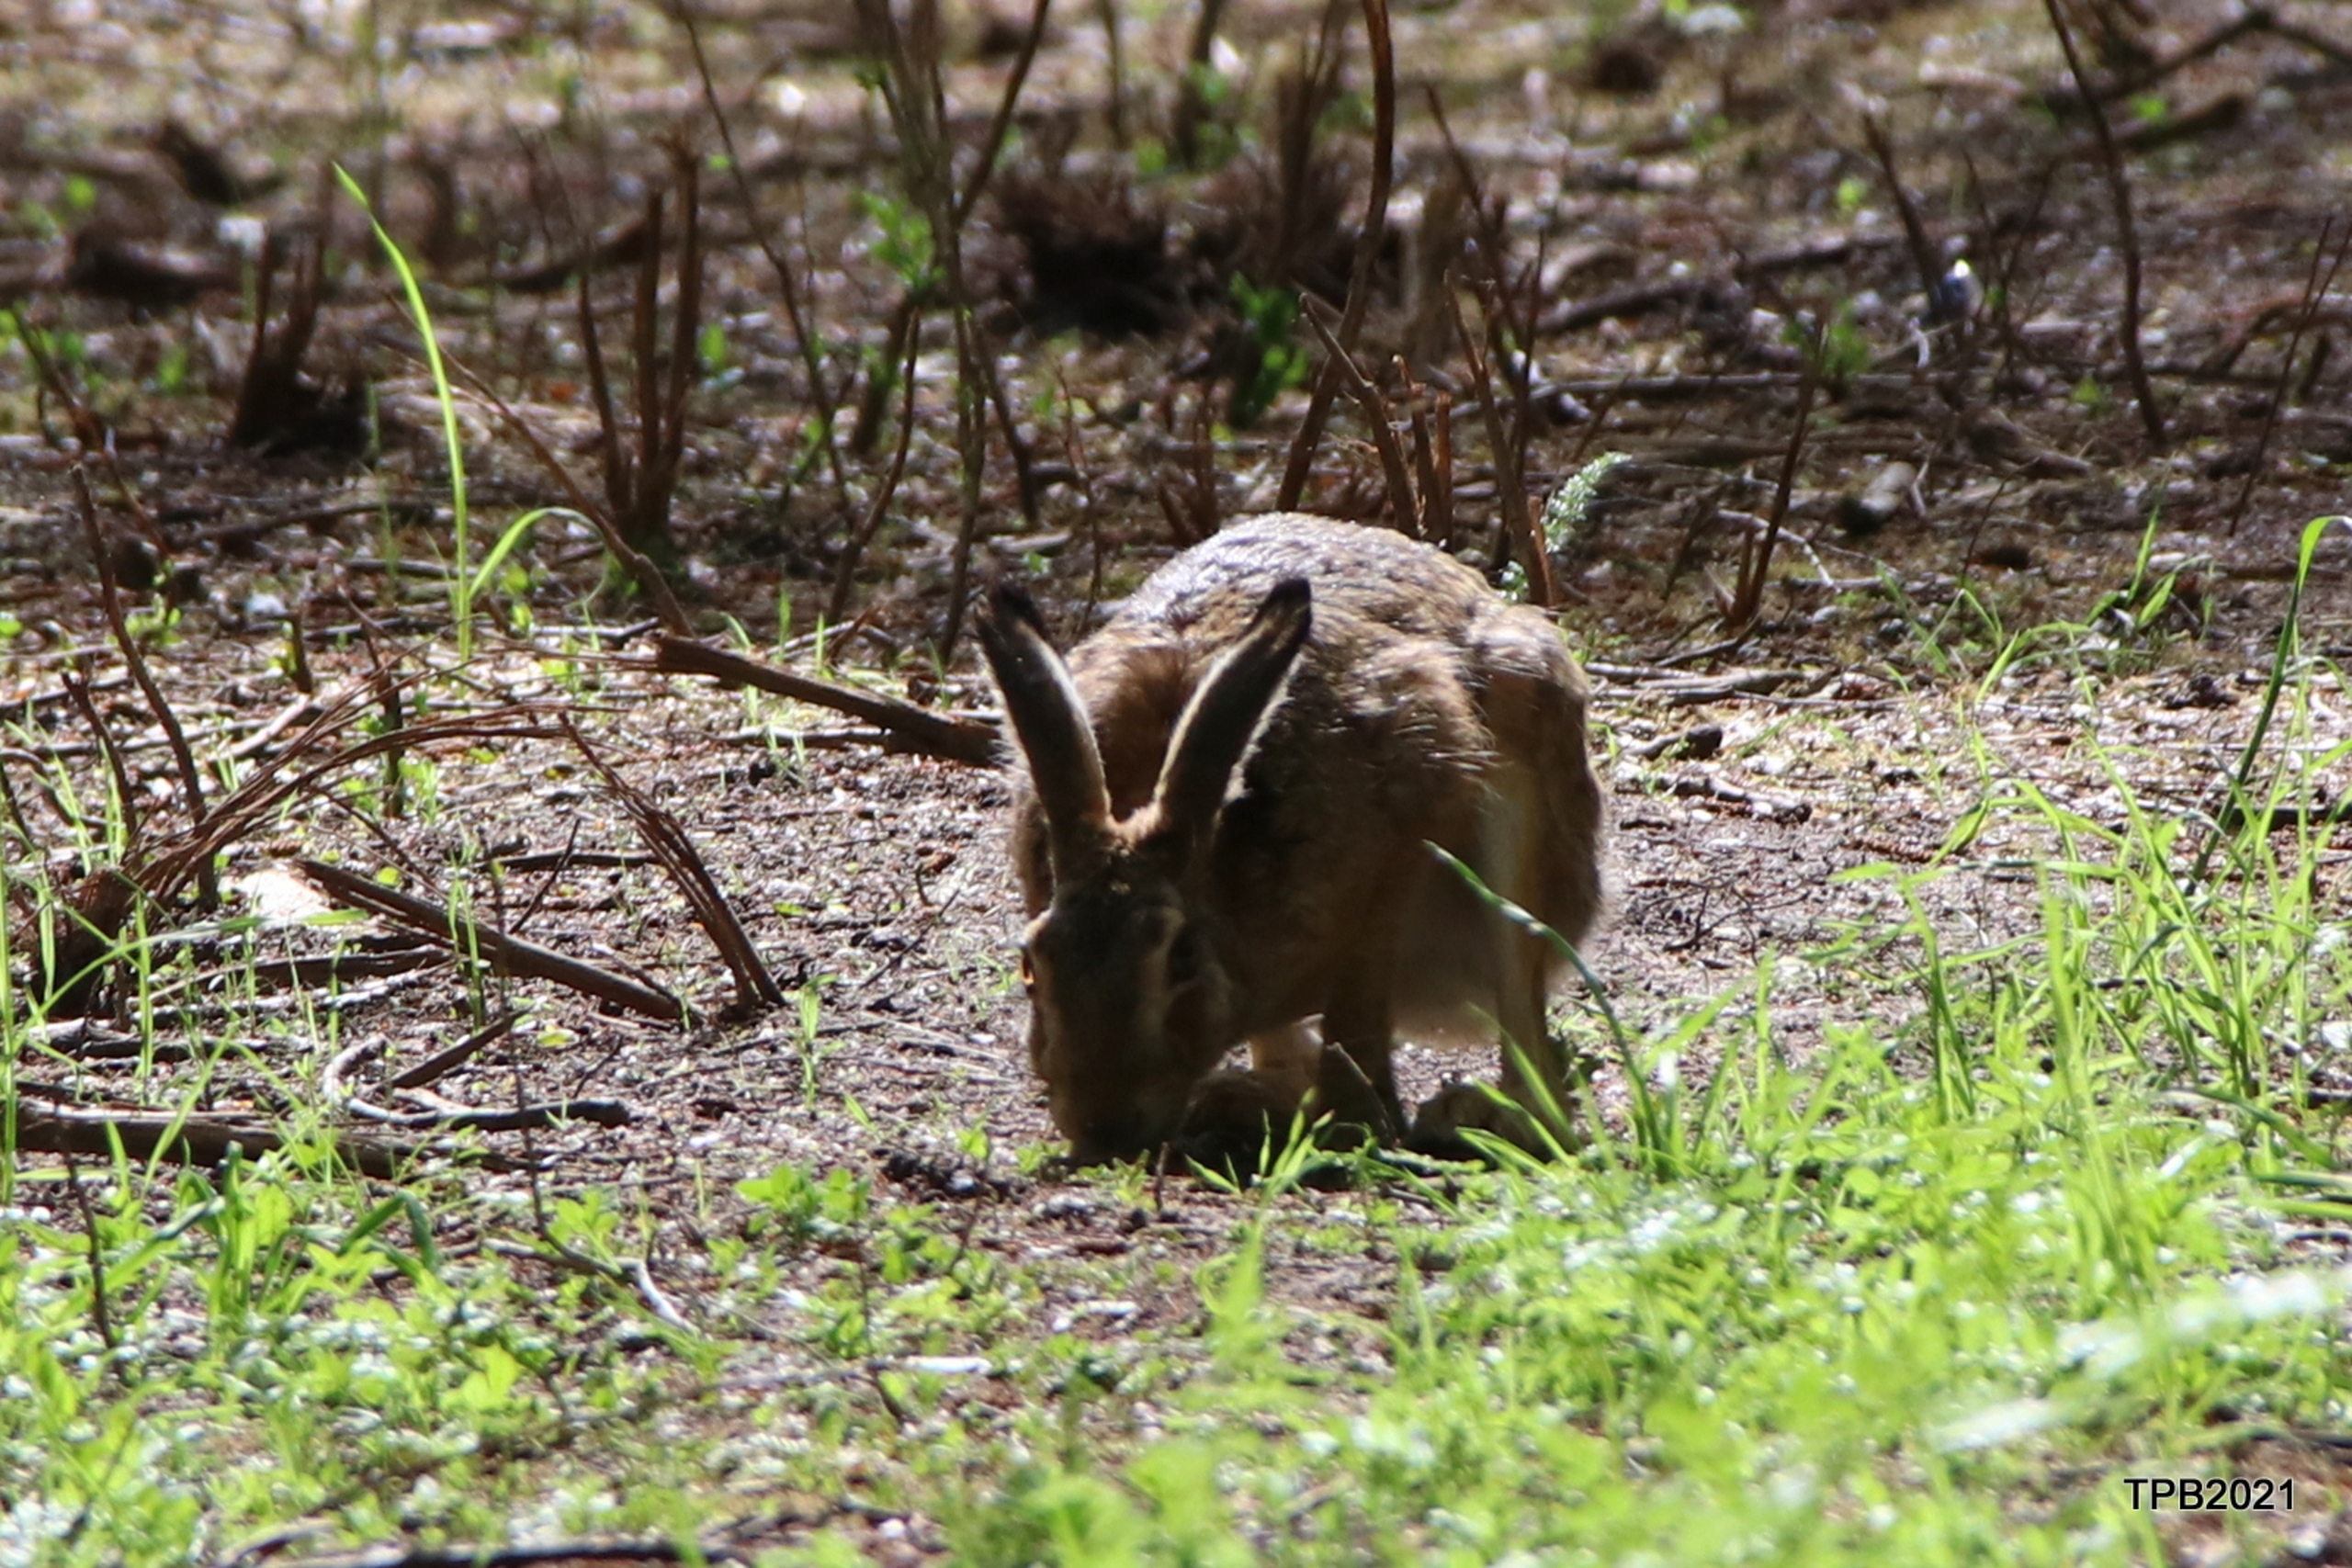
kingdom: Animalia
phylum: Chordata
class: Mammalia
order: Lagomorpha
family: Leporidae
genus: Lepus
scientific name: Lepus europaeus
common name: Hare
